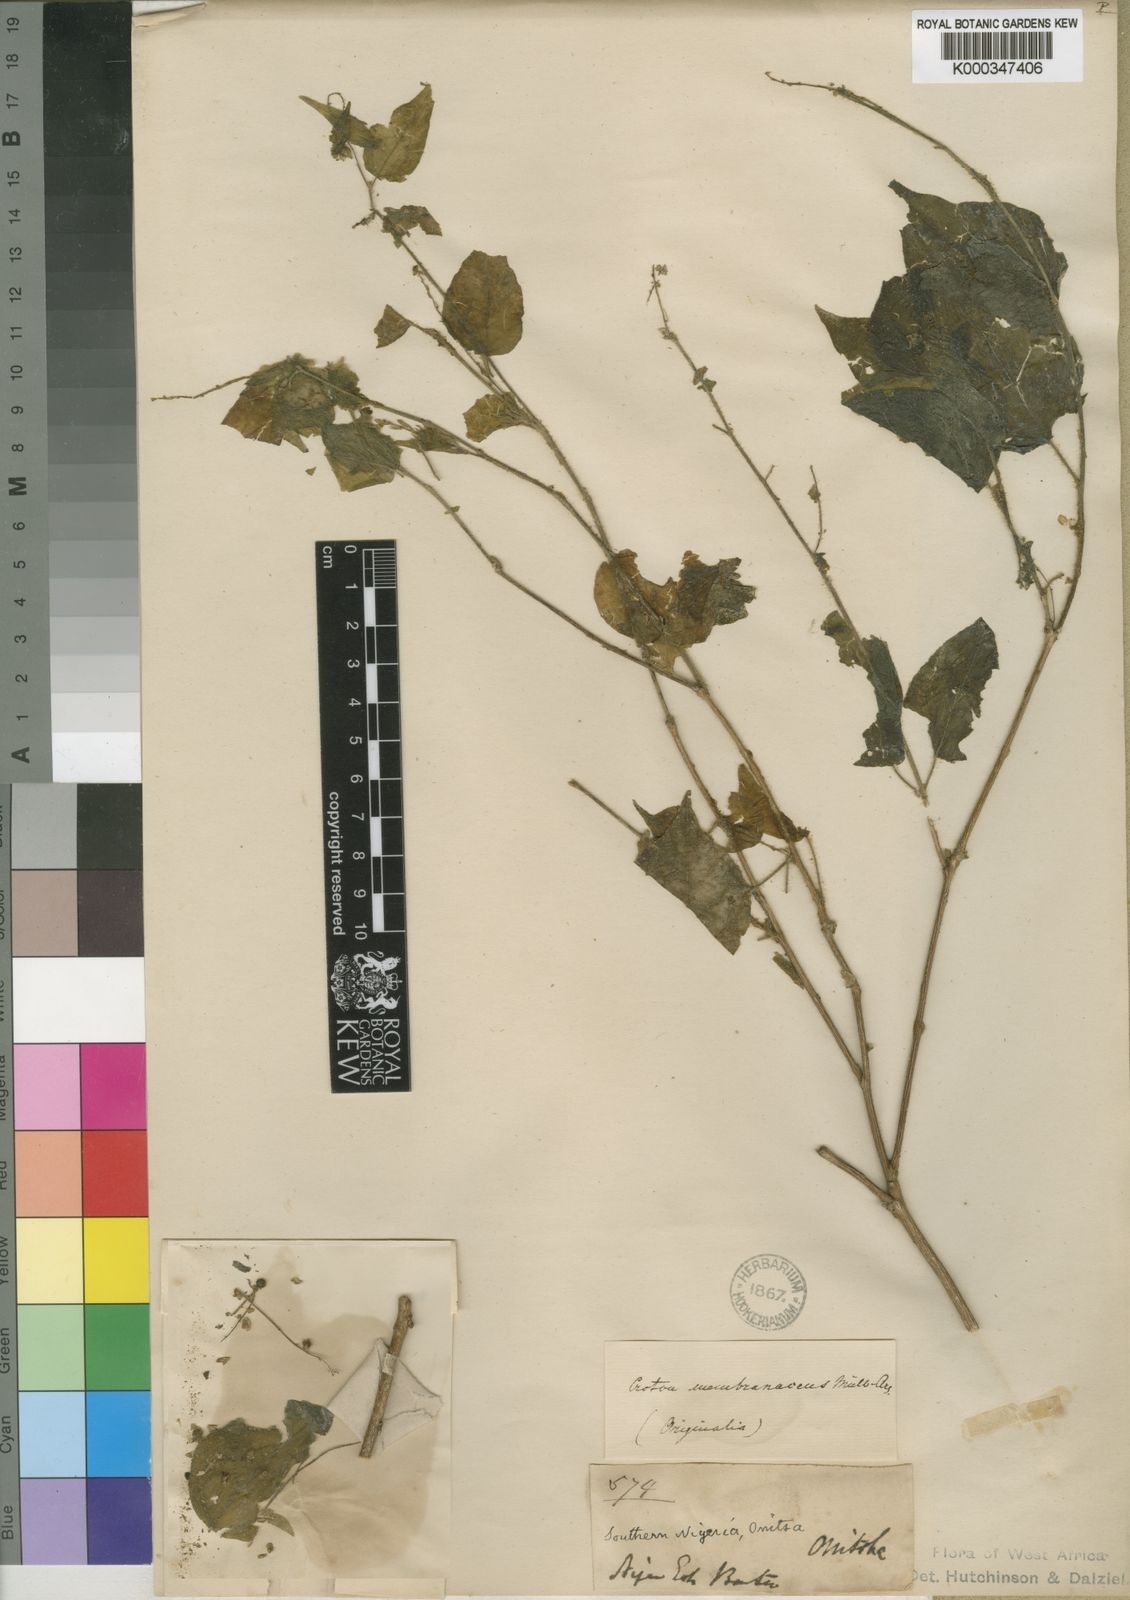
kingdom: Plantae
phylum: Tracheophyta
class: Magnoliopsida
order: Malpighiales
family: Euphorbiaceae
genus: Croton
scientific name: Croton
